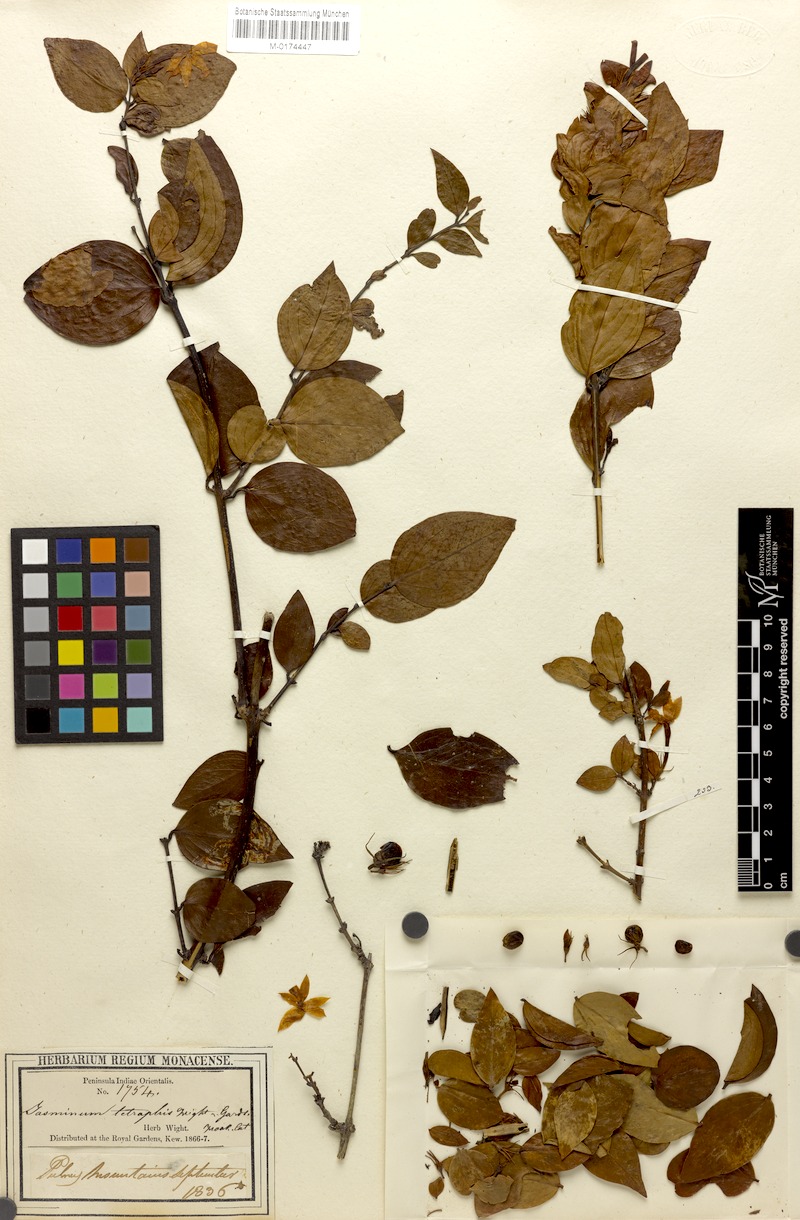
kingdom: Plantae
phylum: Tracheophyta
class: Magnoliopsida
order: Lamiales
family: Oleaceae
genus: Jasminum
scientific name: Jasminum cuspidatum
